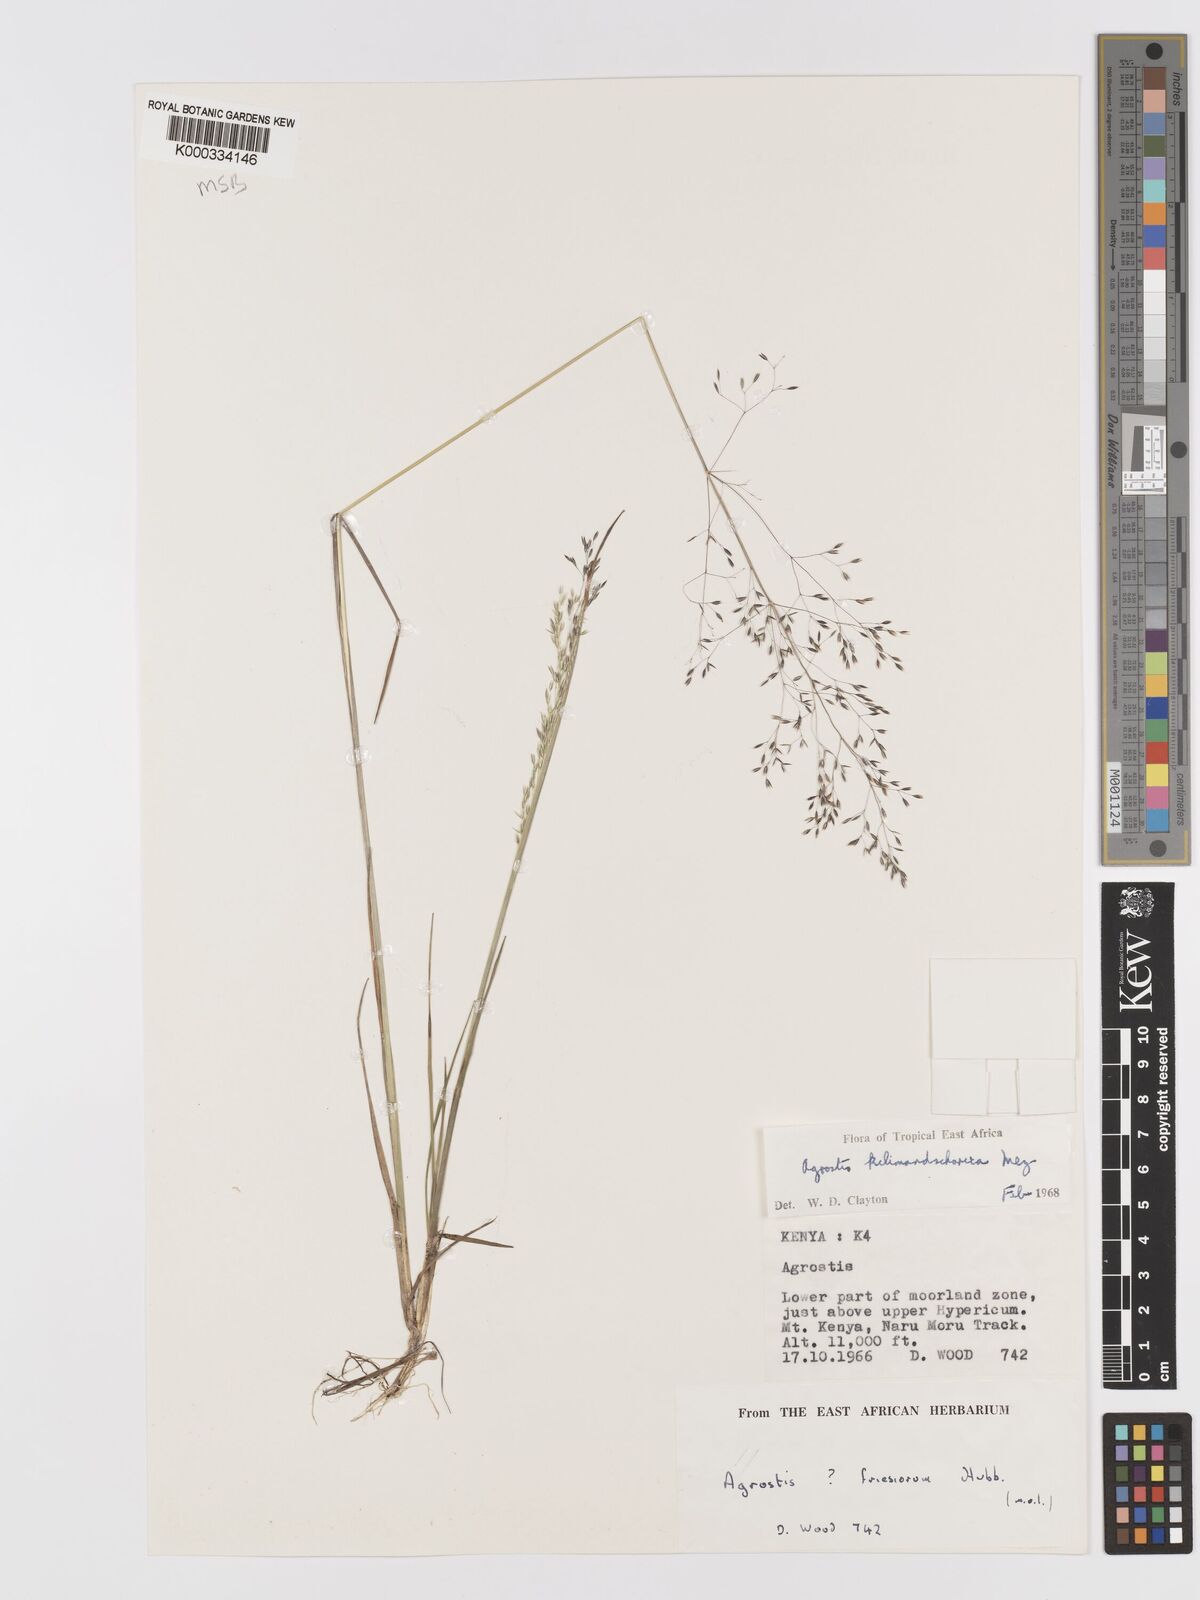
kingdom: Plantae
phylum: Tracheophyta
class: Liliopsida
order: Poales
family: Poaceae
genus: Agrostis
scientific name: Agrostis kilimandscharica
